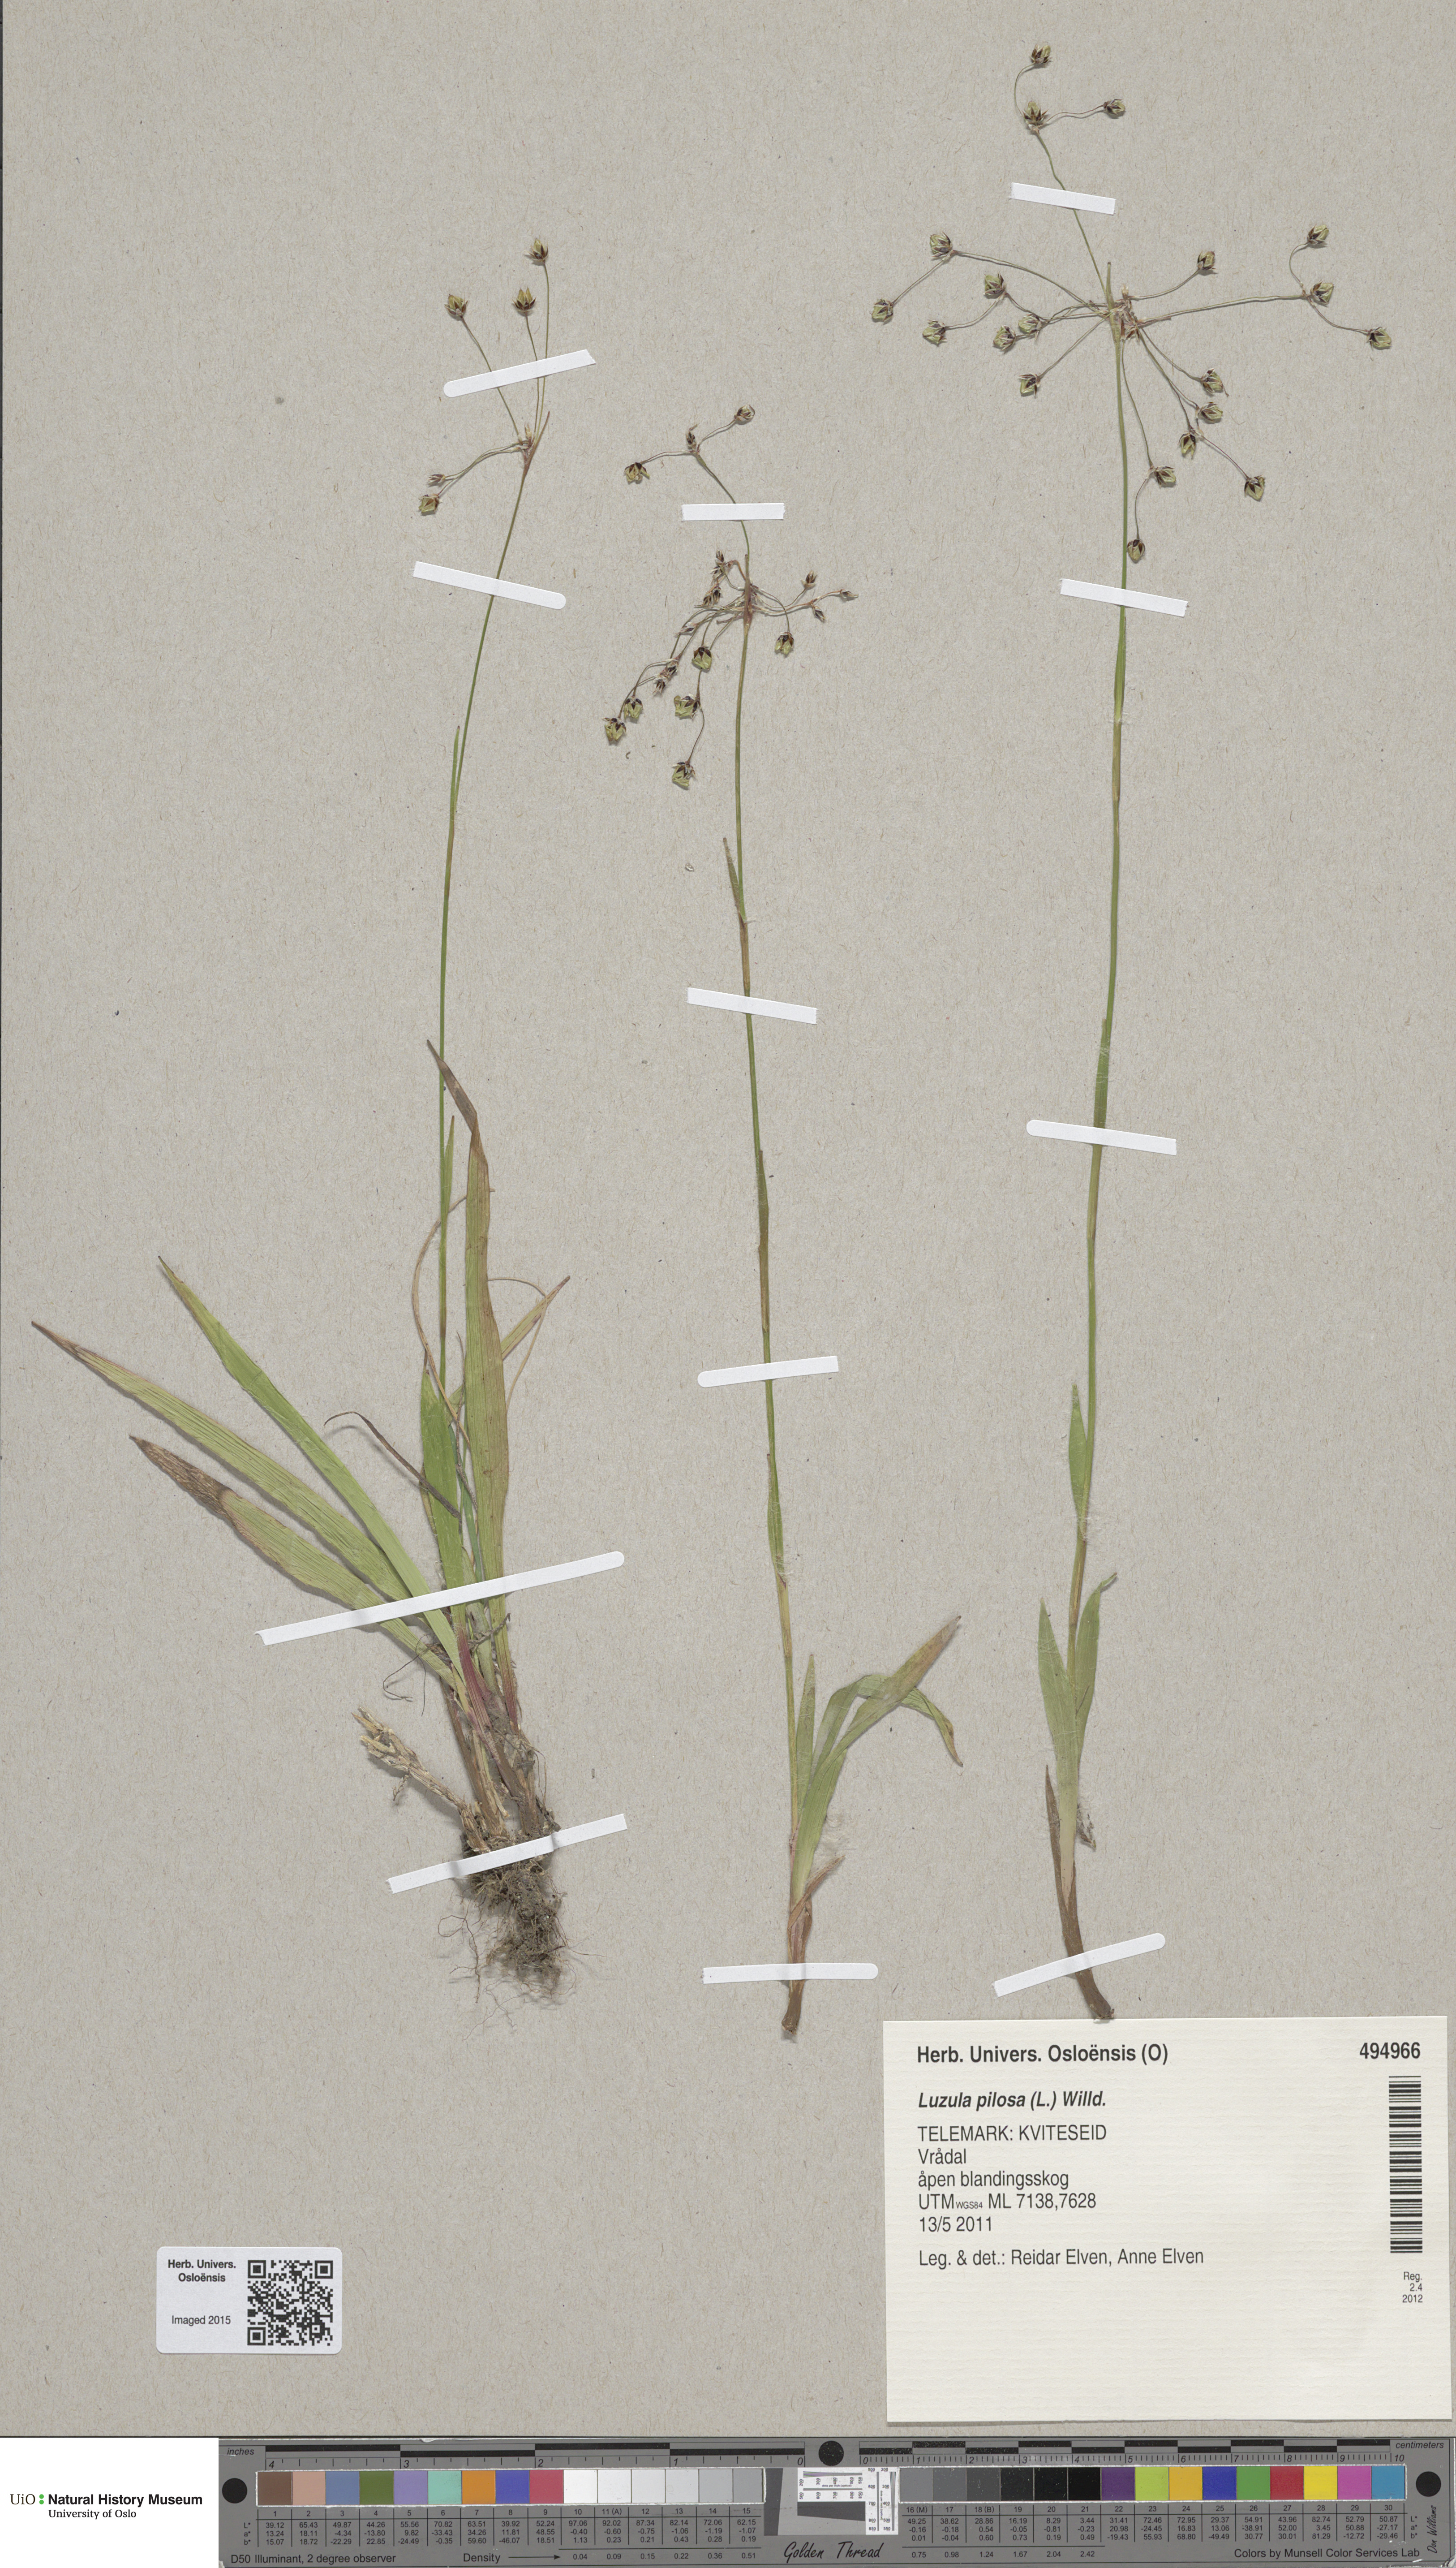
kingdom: Plantae
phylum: Tracheophyta
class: Liliopsida
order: Poales
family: Juncaceae
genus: Luzula
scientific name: Luzula pilosa
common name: Hairy wood-rush
